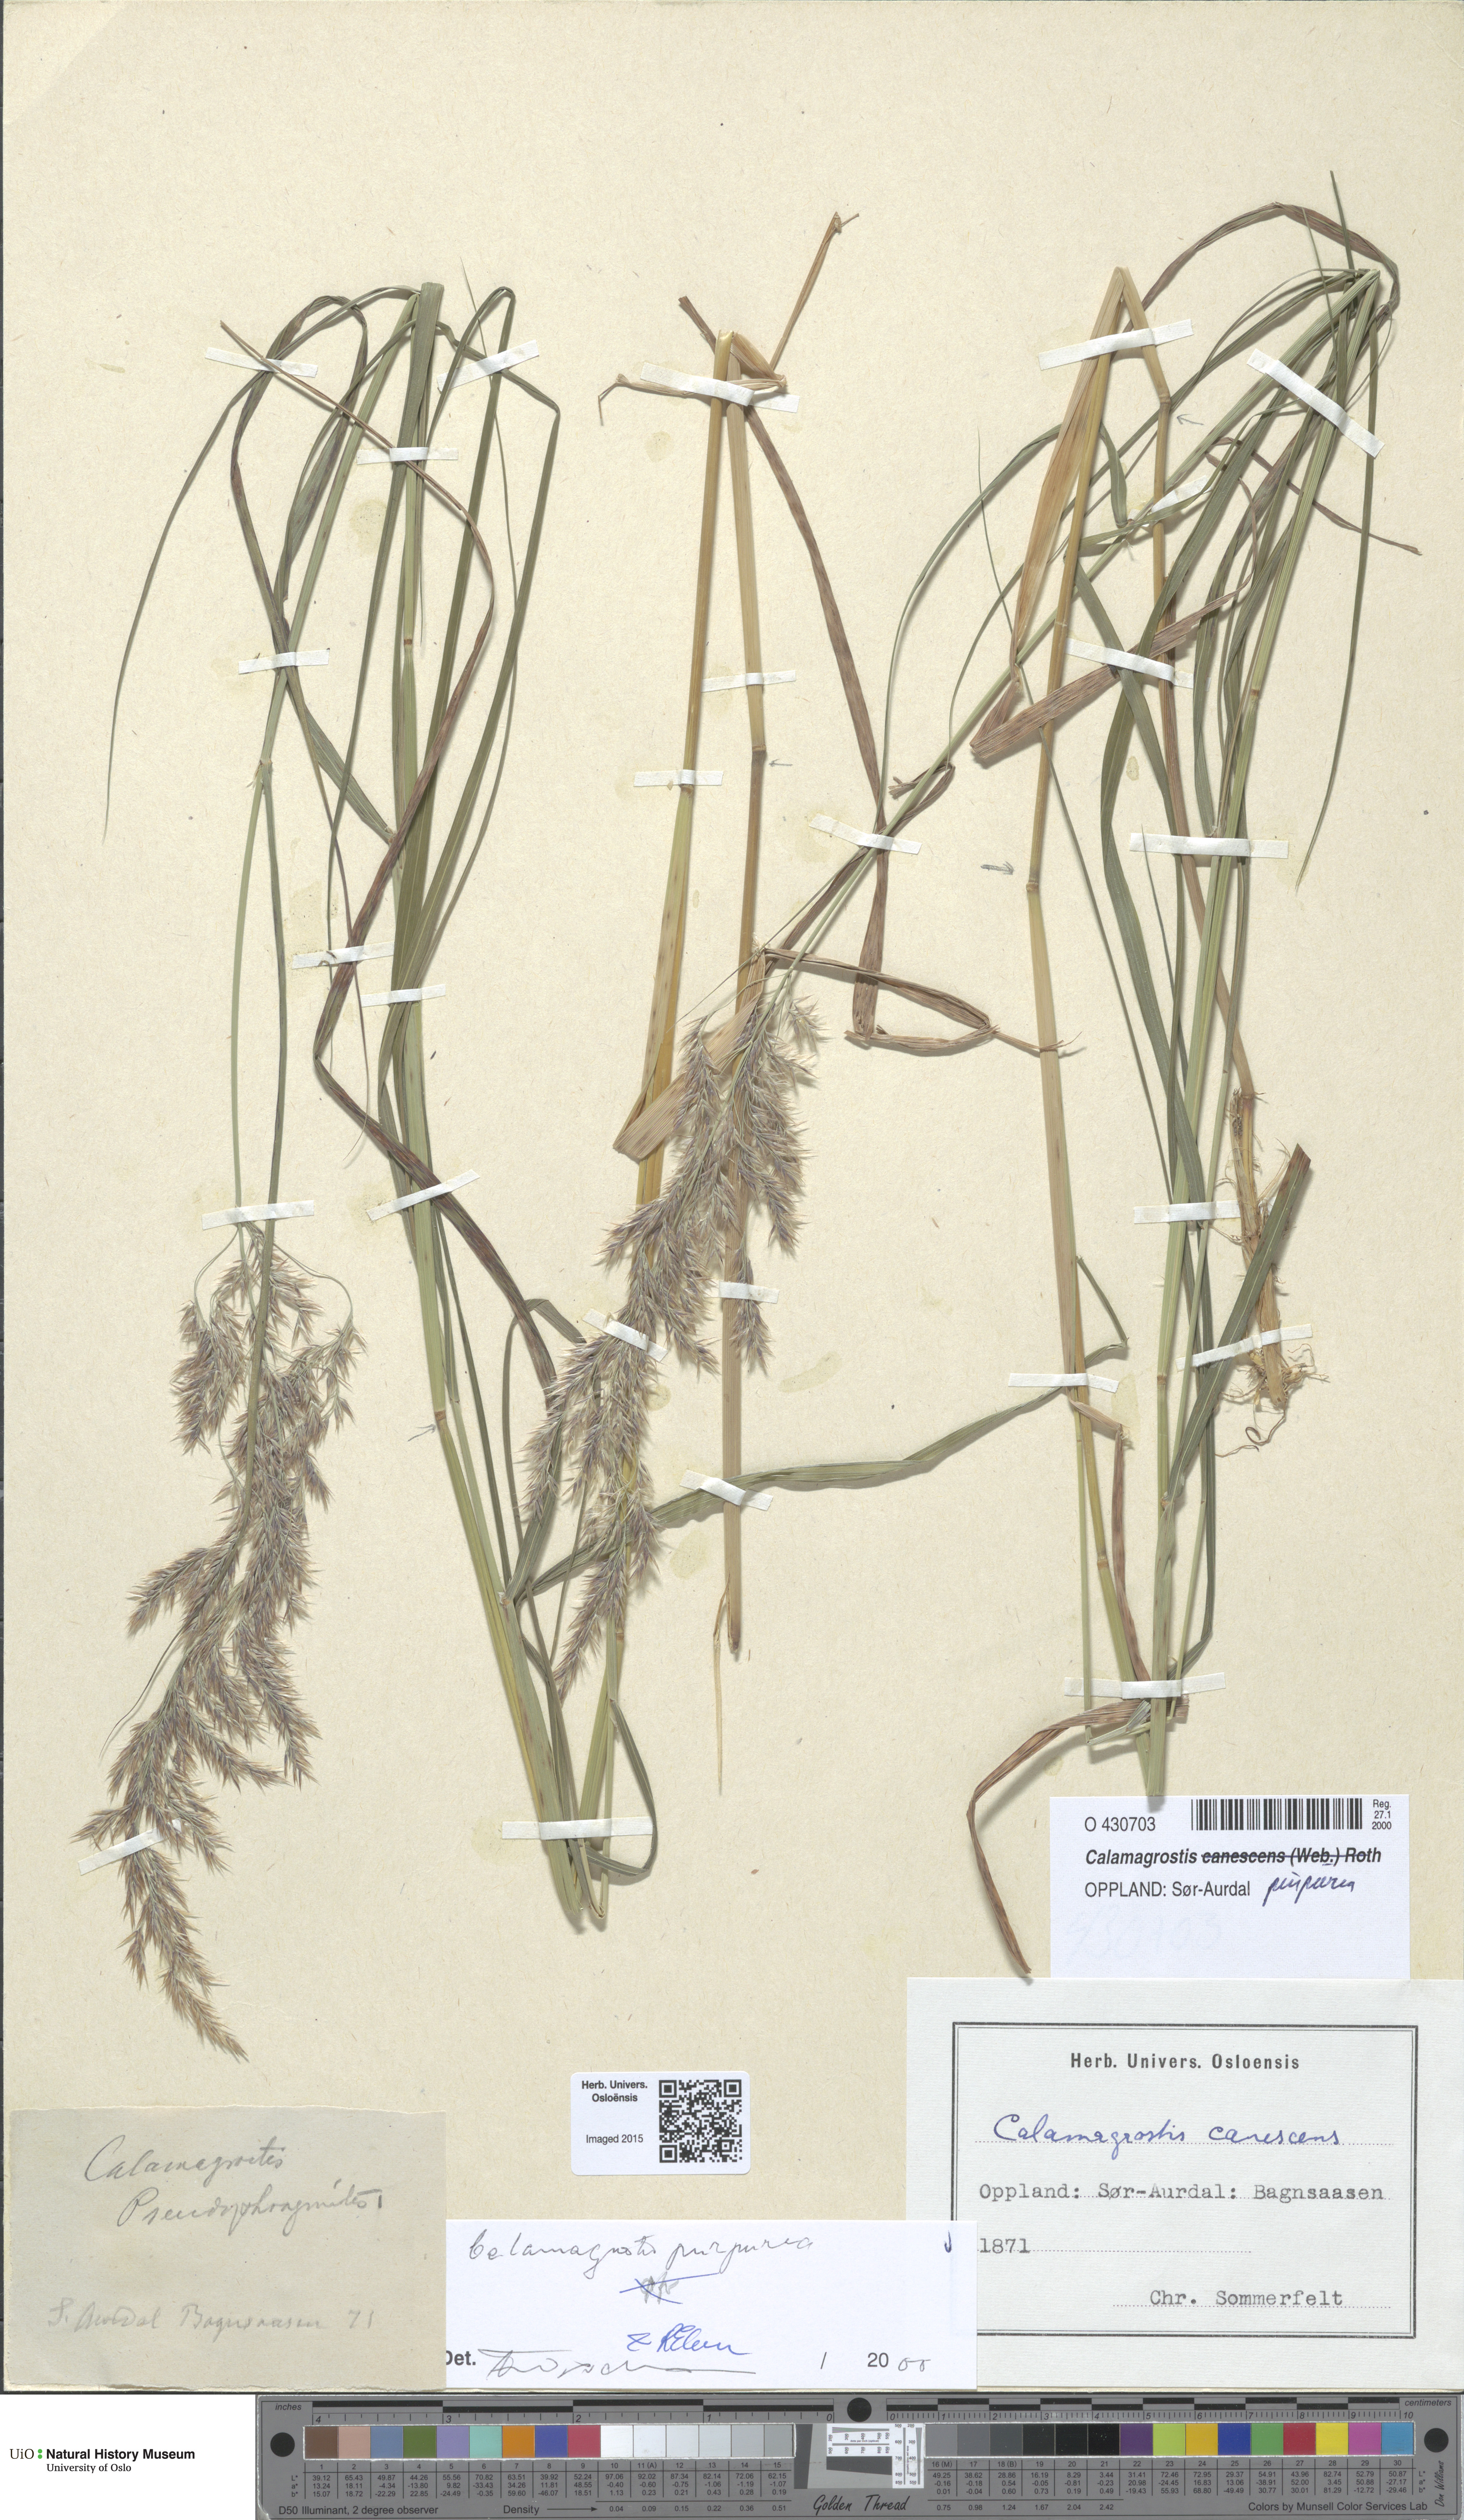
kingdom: Plantae
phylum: Tracheophyta
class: Liliopsida
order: Poales
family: Poaceae
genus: Calamagrostis
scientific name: Calamagrostis purpurea
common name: Scandinavian small-reed
